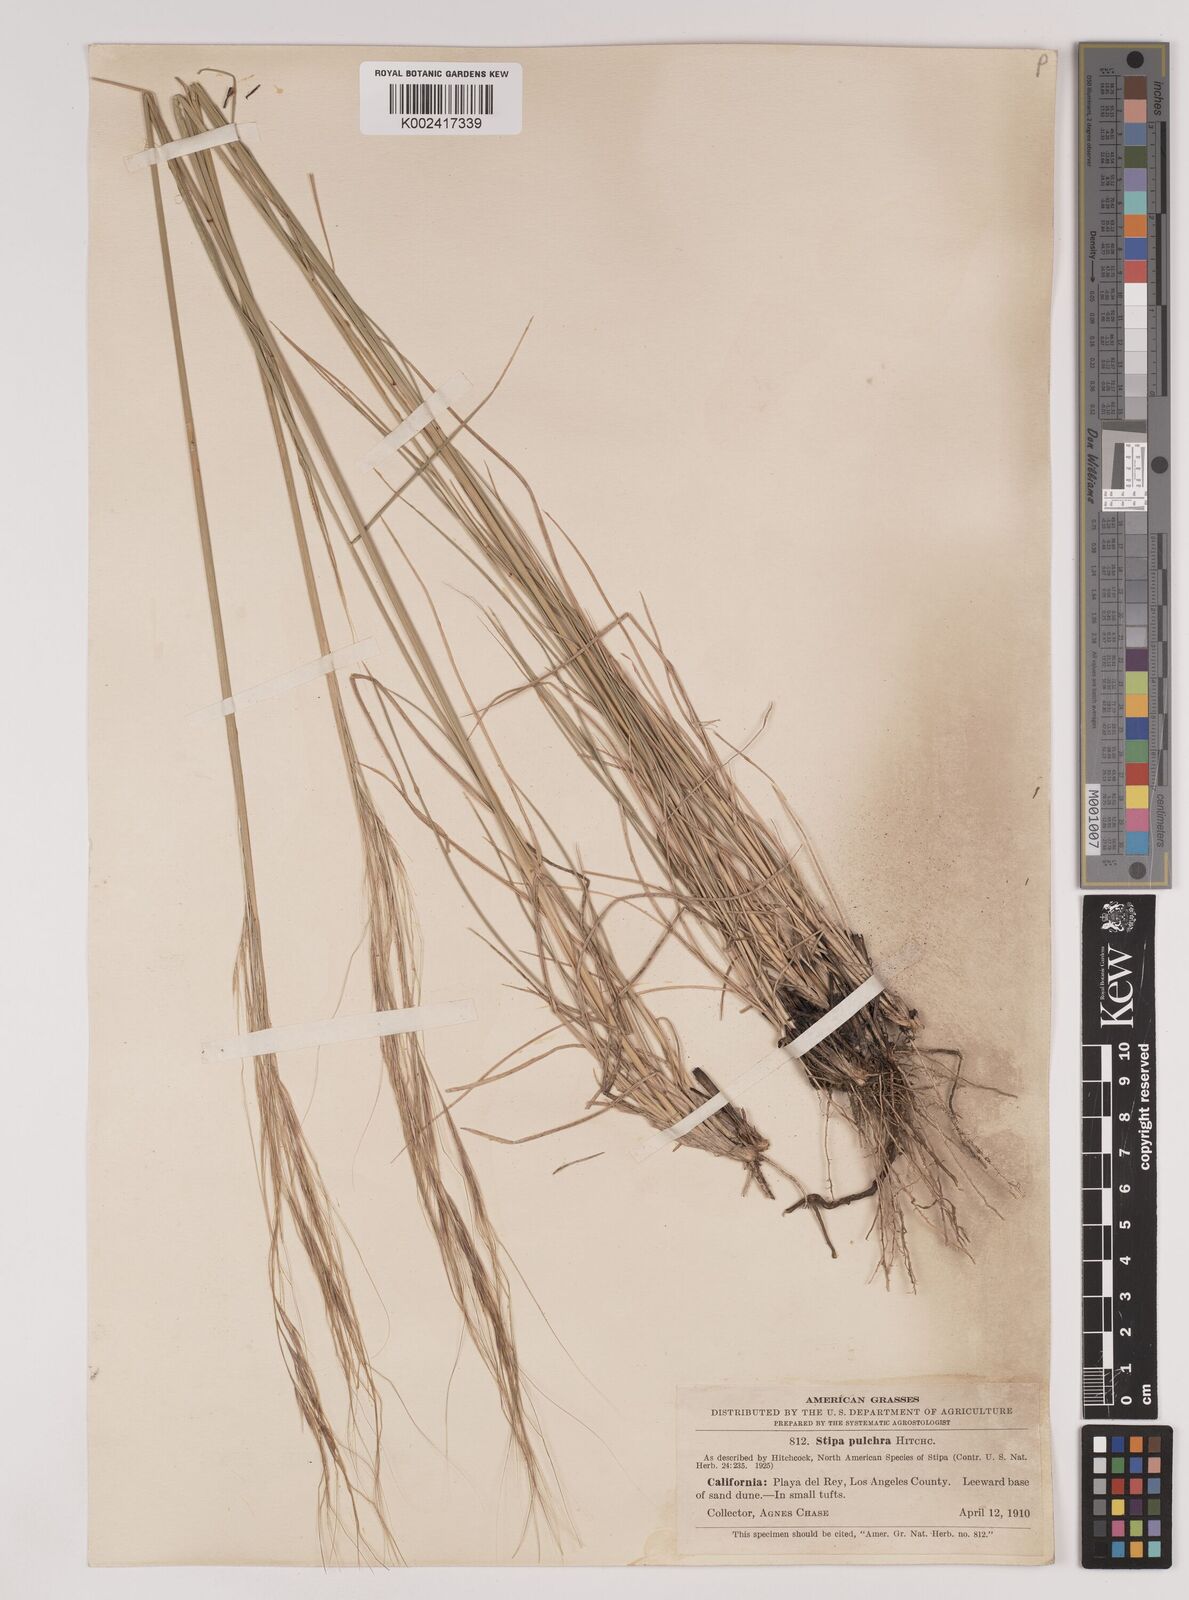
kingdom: Plantae
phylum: Tracheophyta
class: Liliopsida
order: Poales
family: Poaceae
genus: Nassella
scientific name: Nassella pulchra
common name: Purple needlegrass
